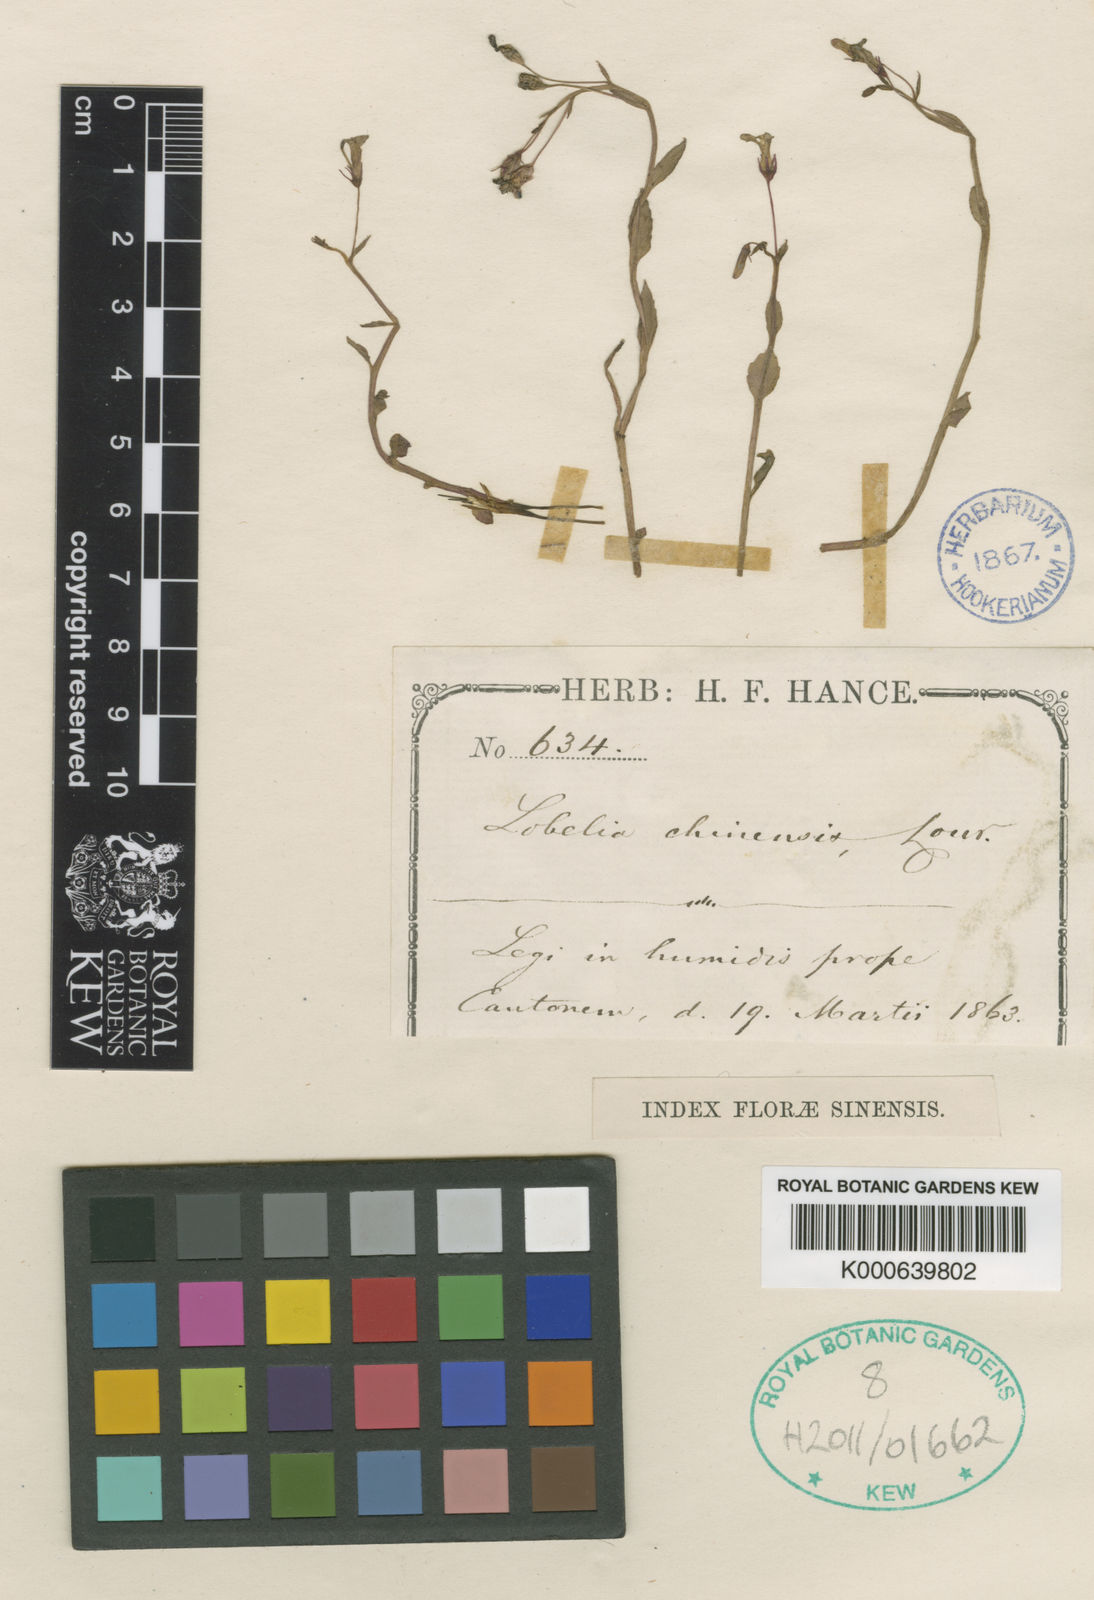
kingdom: Plantae
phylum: Tracheophyta
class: Magnoliopsida
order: Asterales
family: Campanulaceae
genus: Lobelia
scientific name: Lobelia dopatrioides
